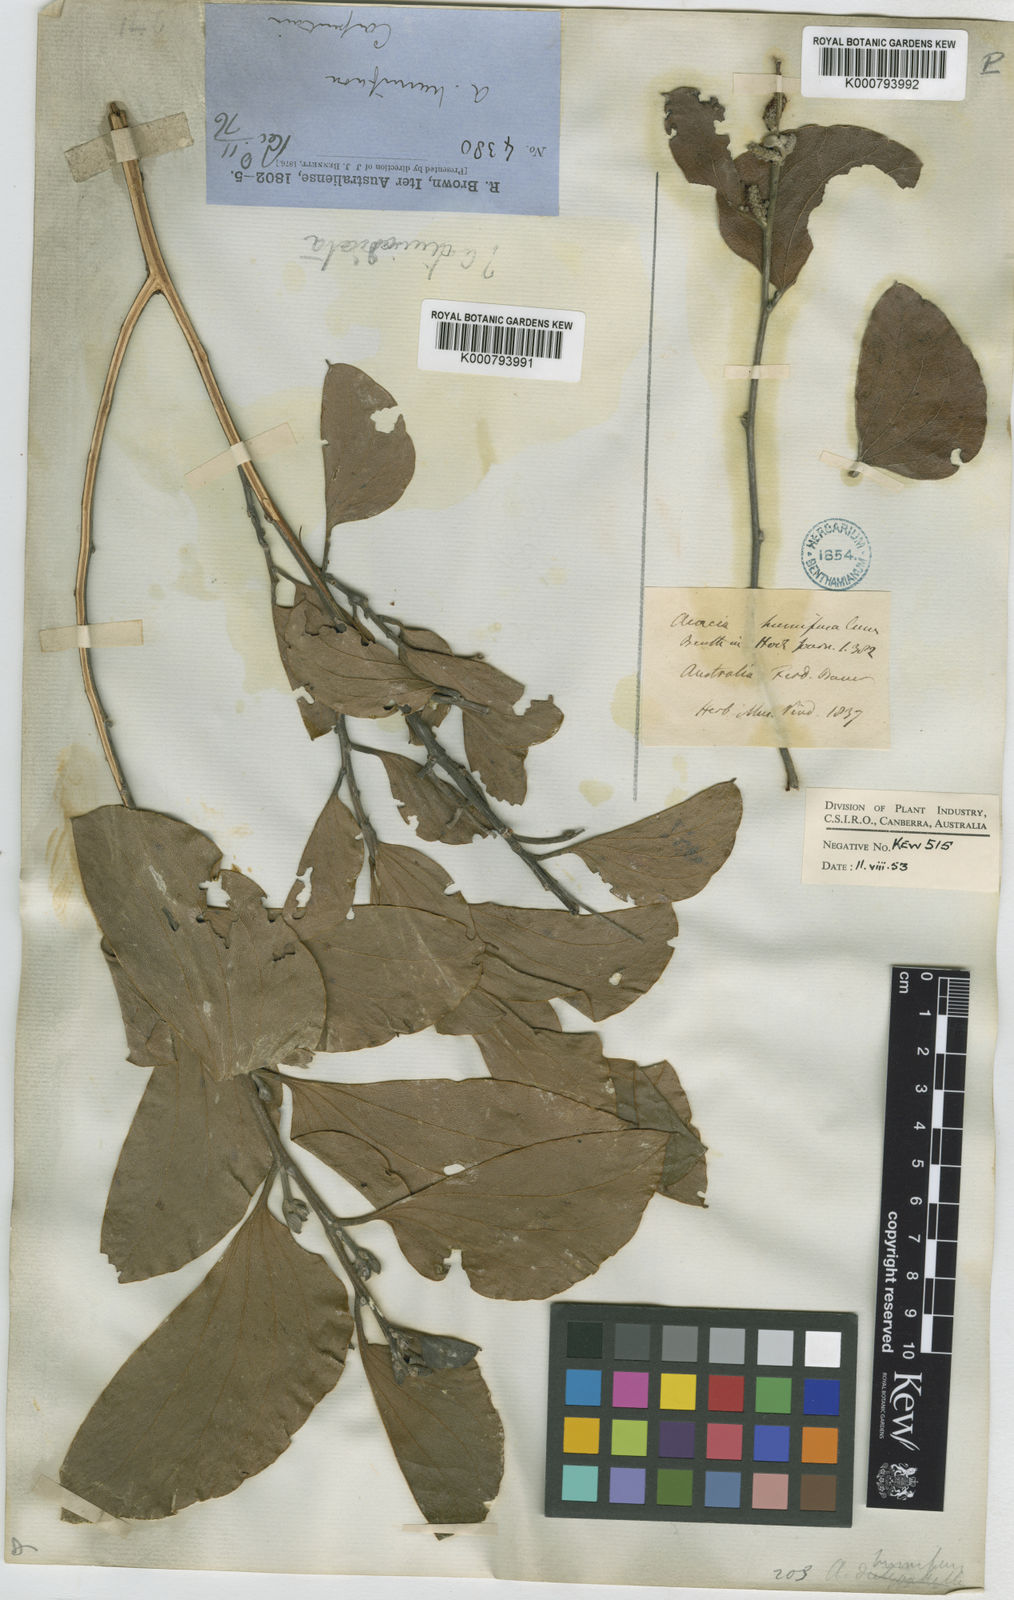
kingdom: Plantae
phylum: Tracheophyta
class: Magnoliopsida
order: Fabales
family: Fabaceae
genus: Acacia
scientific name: Acacia humifusa
